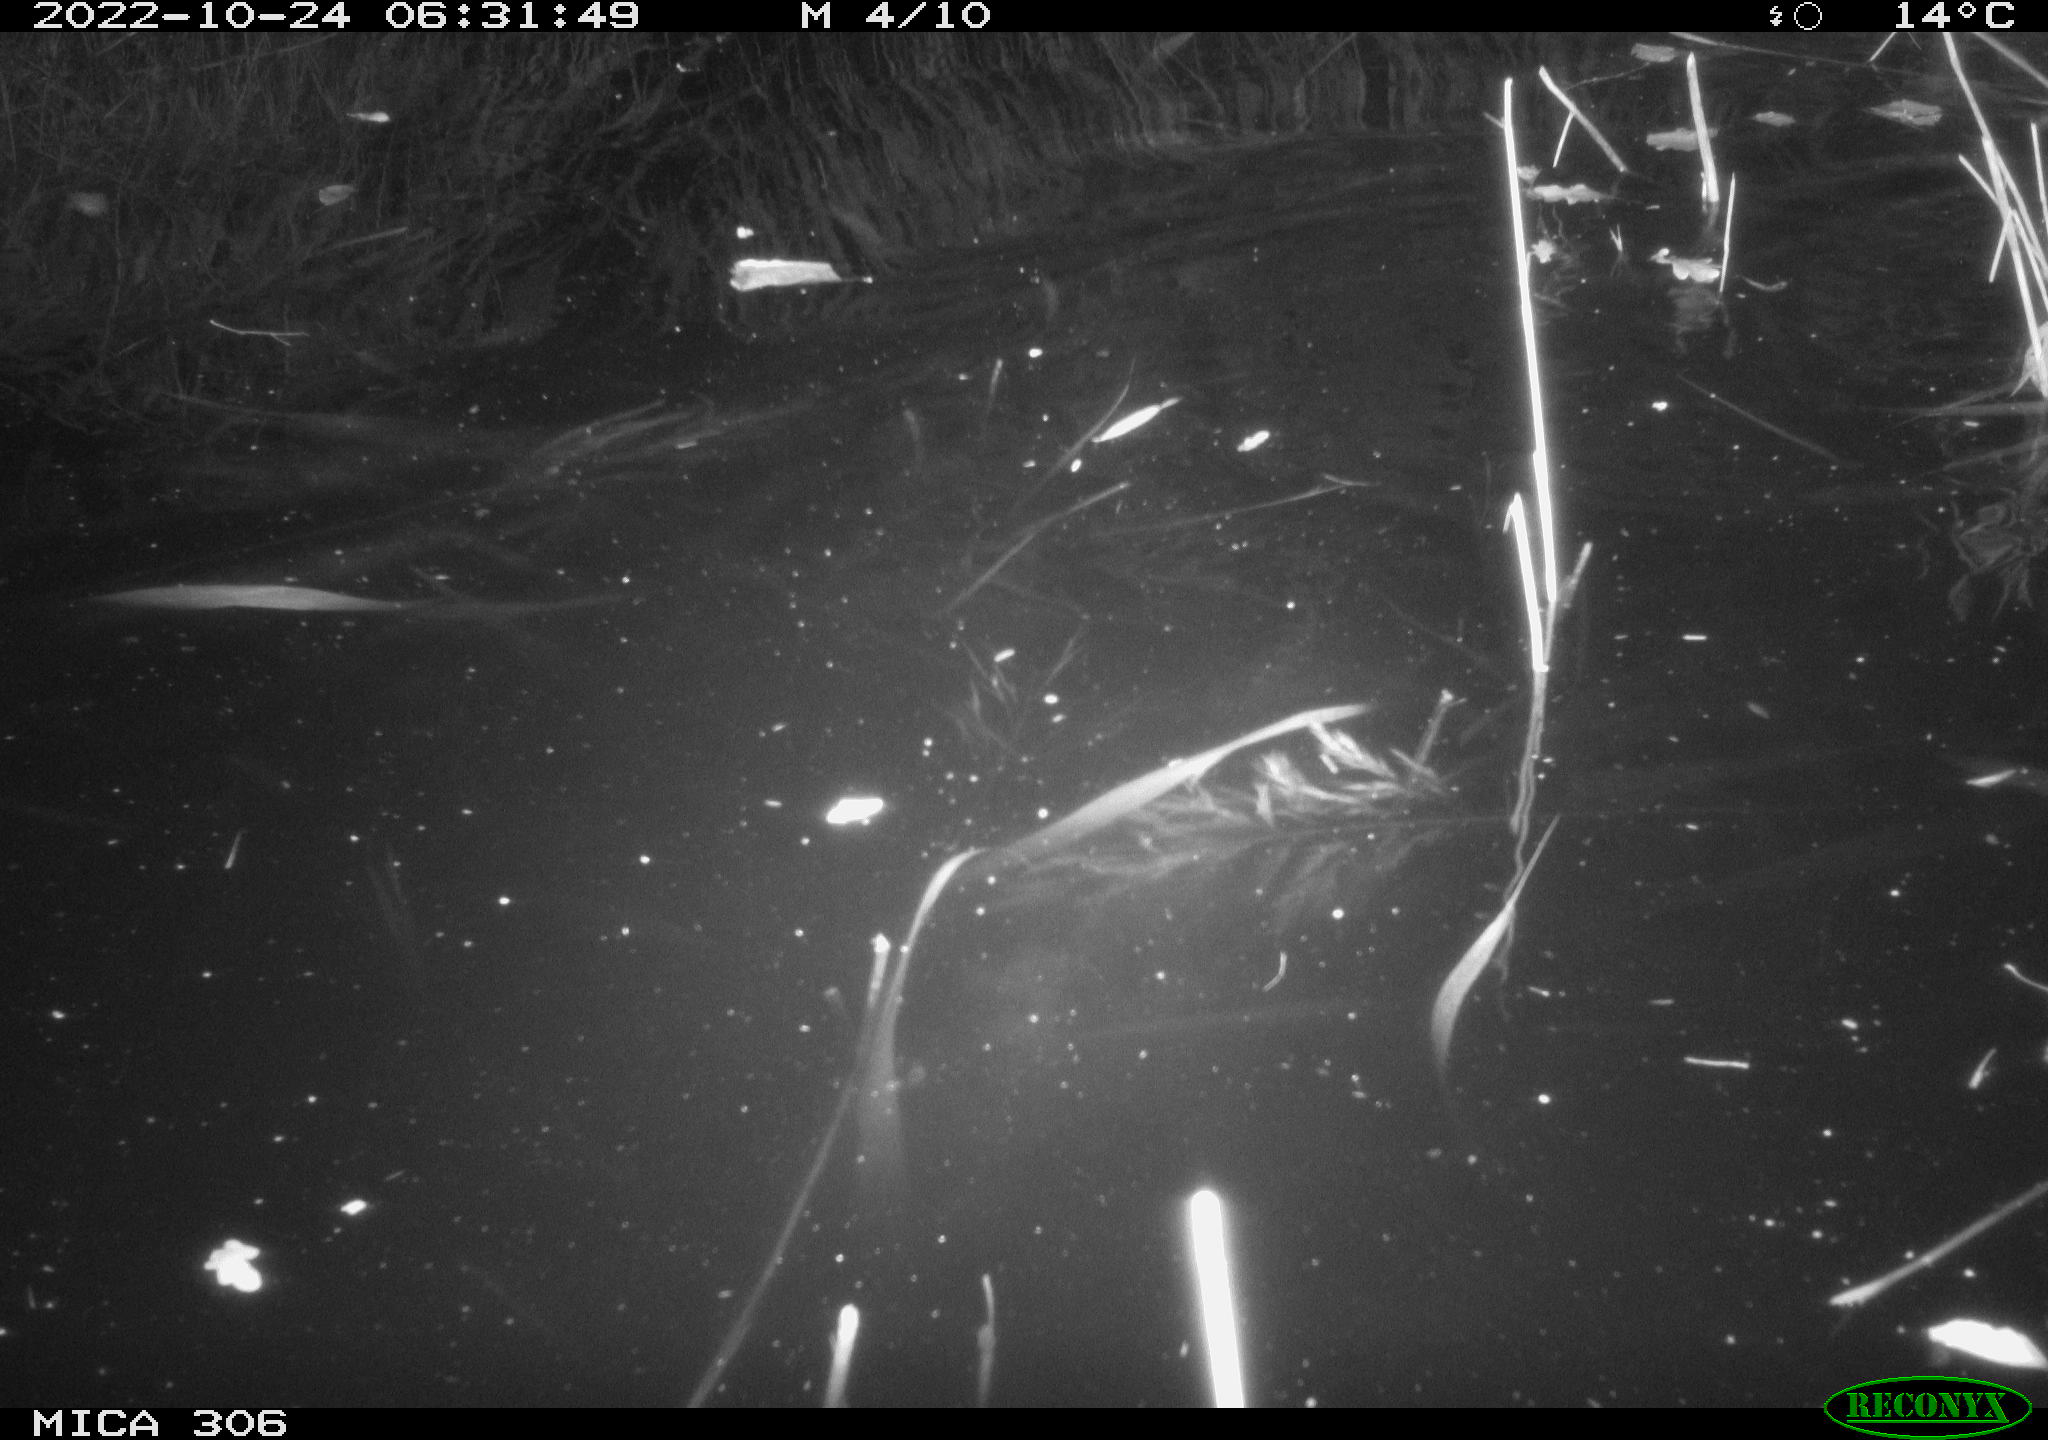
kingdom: Animalia
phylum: Chordata
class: Mammalia
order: Rodentia
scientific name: Rodentia
